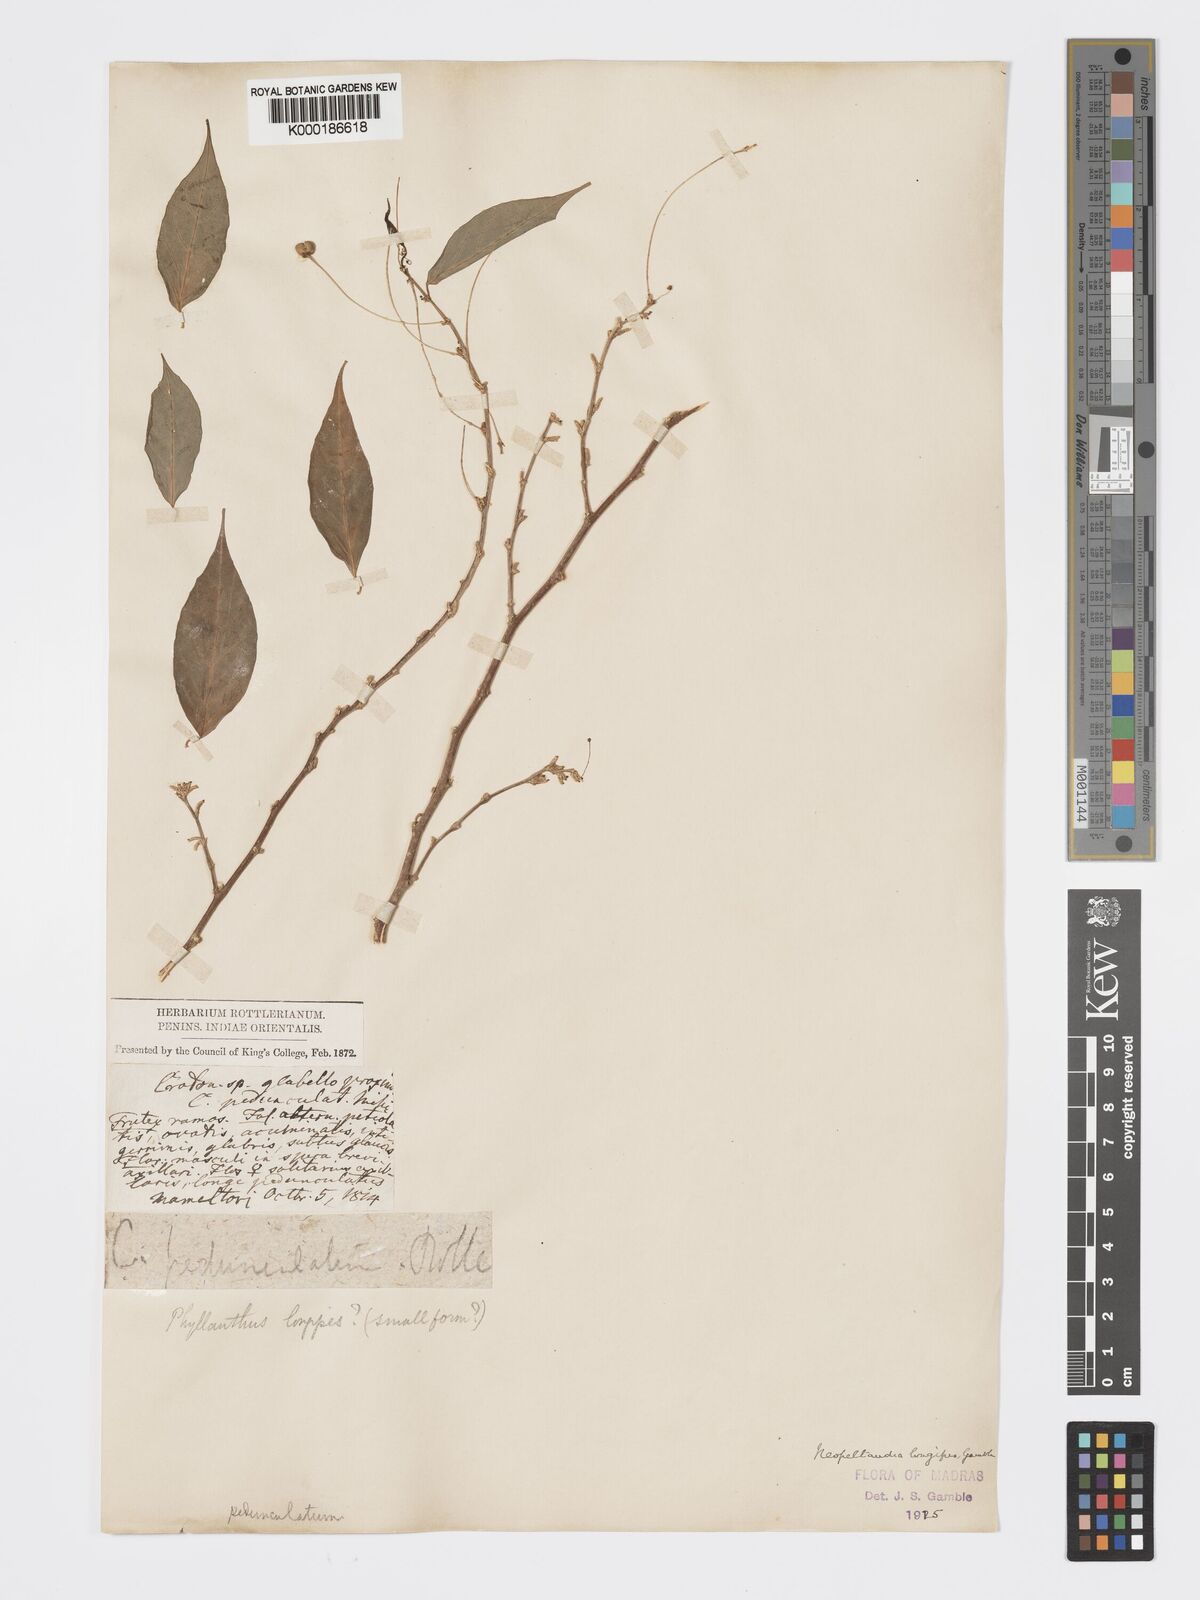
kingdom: Plantae
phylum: Tracheophyta
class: Magnoliopsida
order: Malpighiales
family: Phyllanthaceae
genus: Meineckia
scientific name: Meineckia longipes
